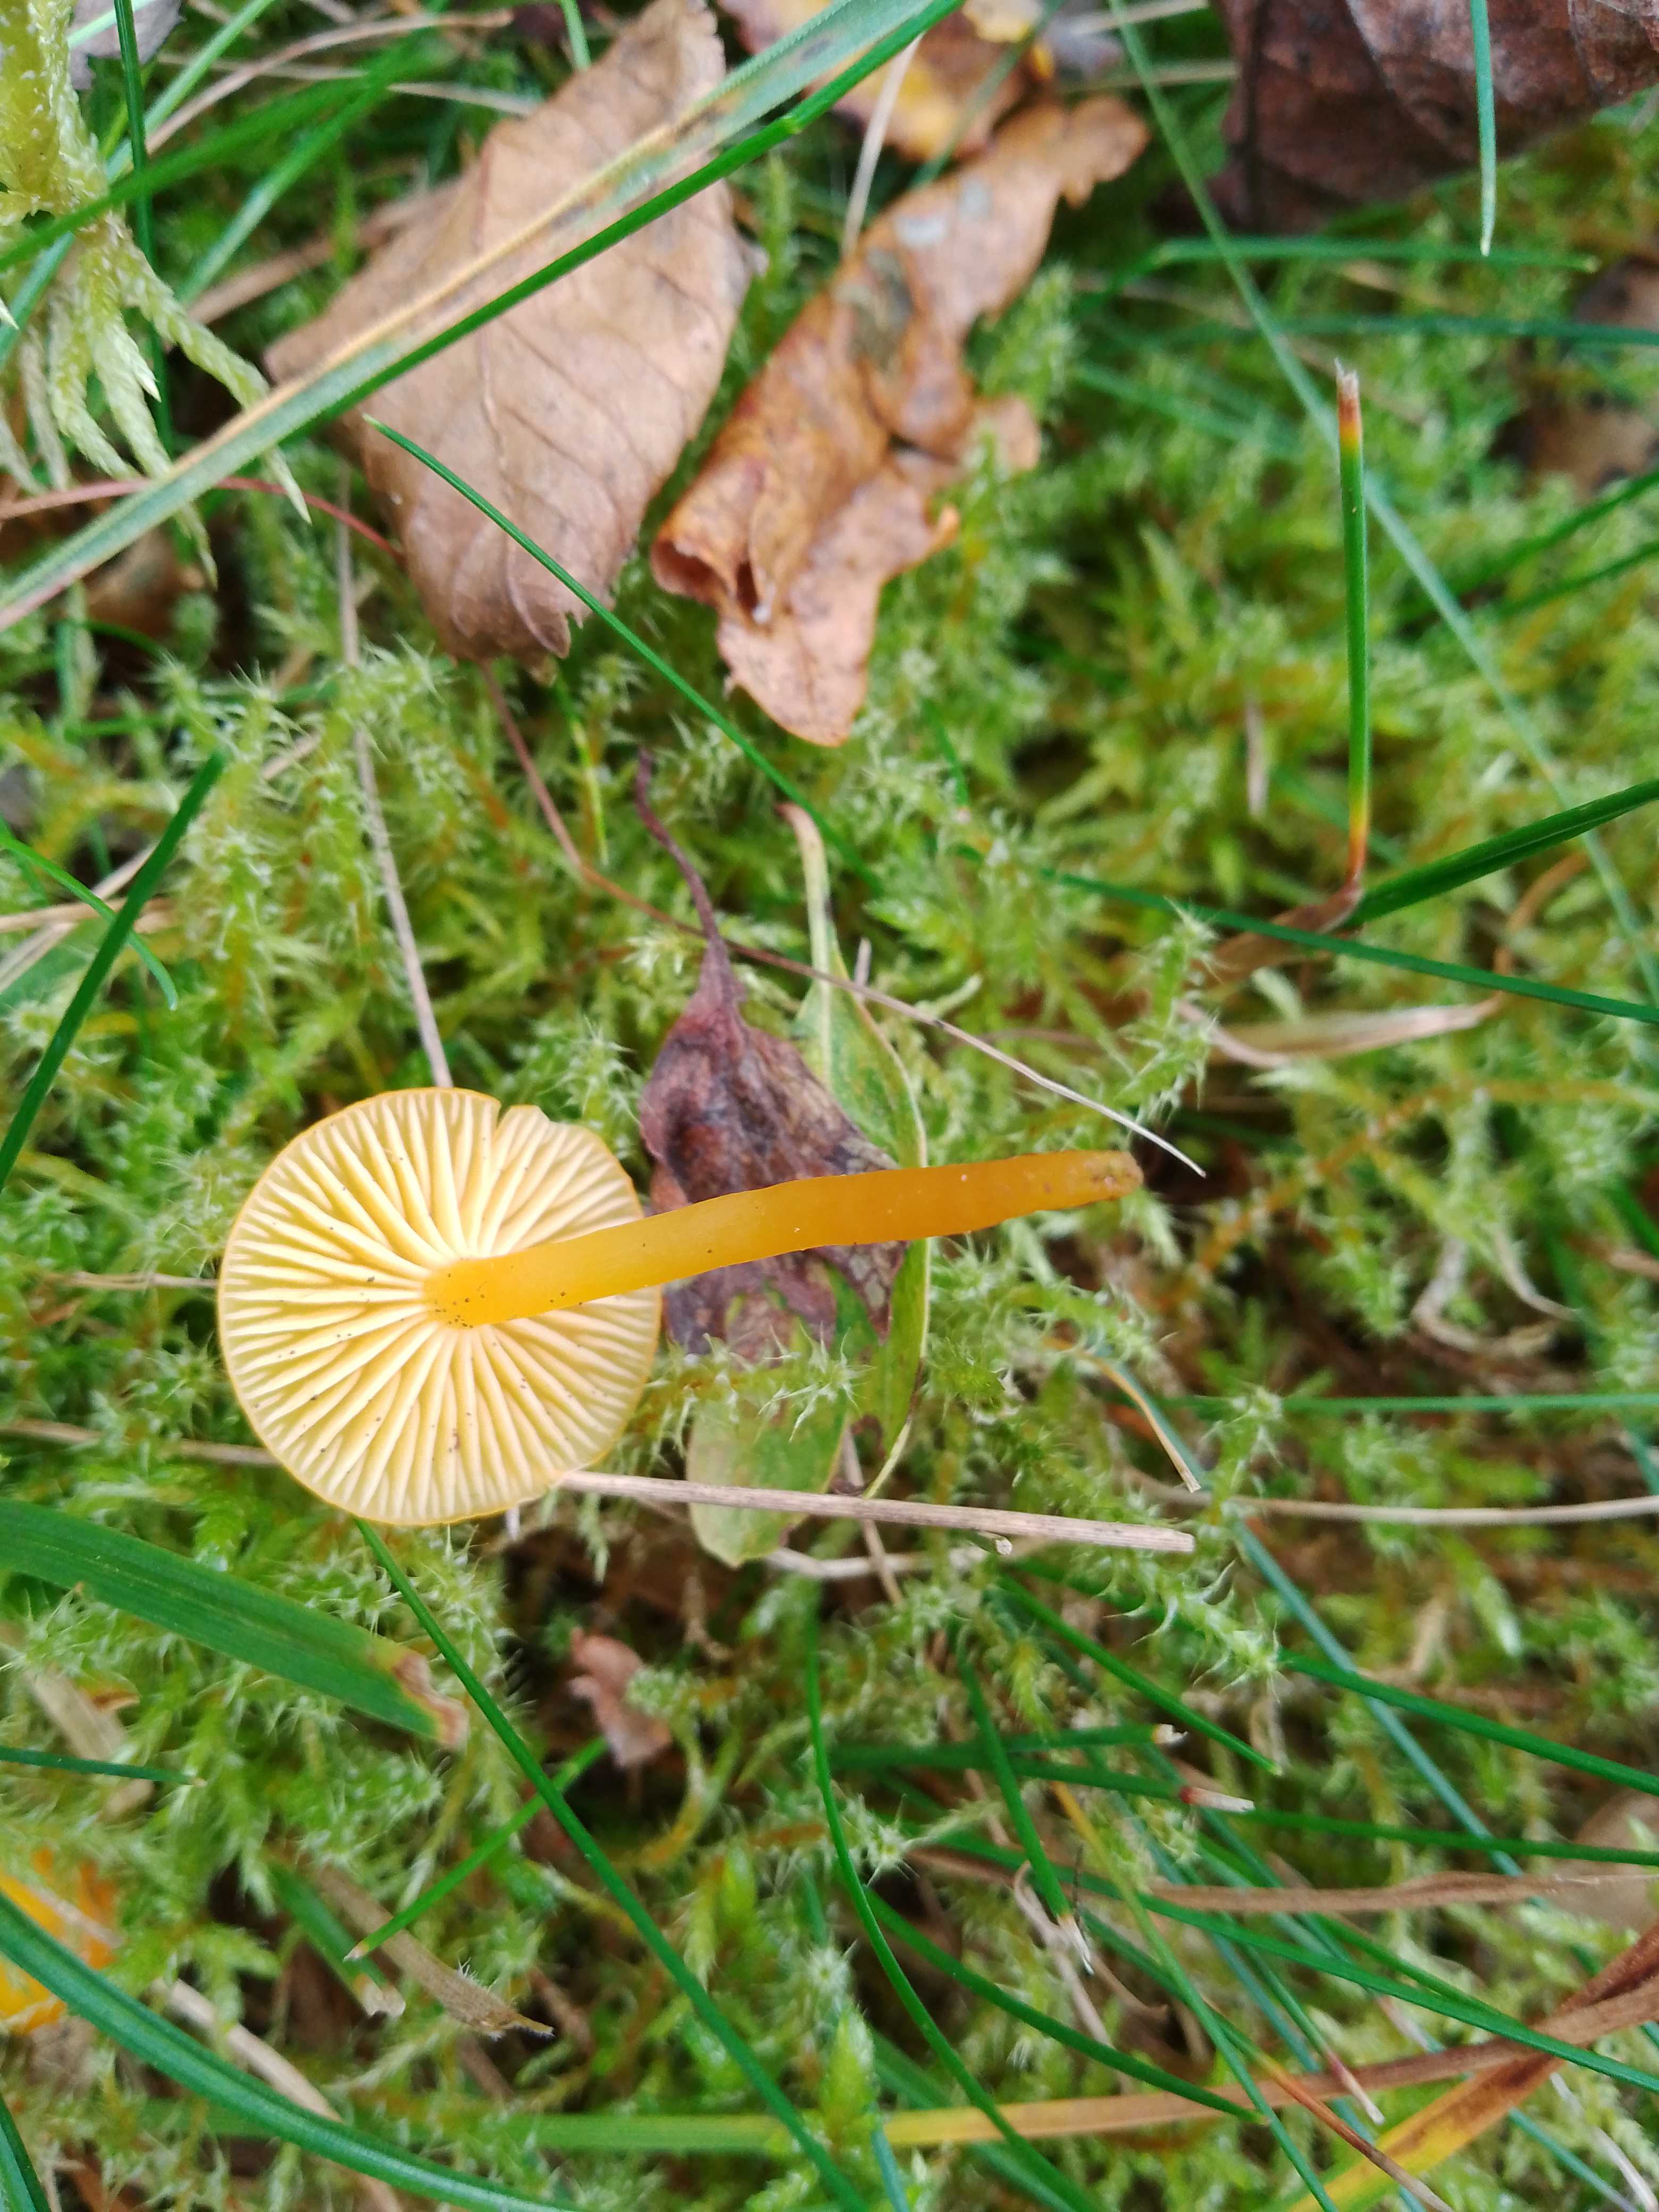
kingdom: Fungi
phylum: Basidiomycota
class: Agaricomycetes
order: Agaricales
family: Hygrophoraceae
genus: Hygrocybe
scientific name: Hygrocybe ceracea
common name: voksgul vokshat
